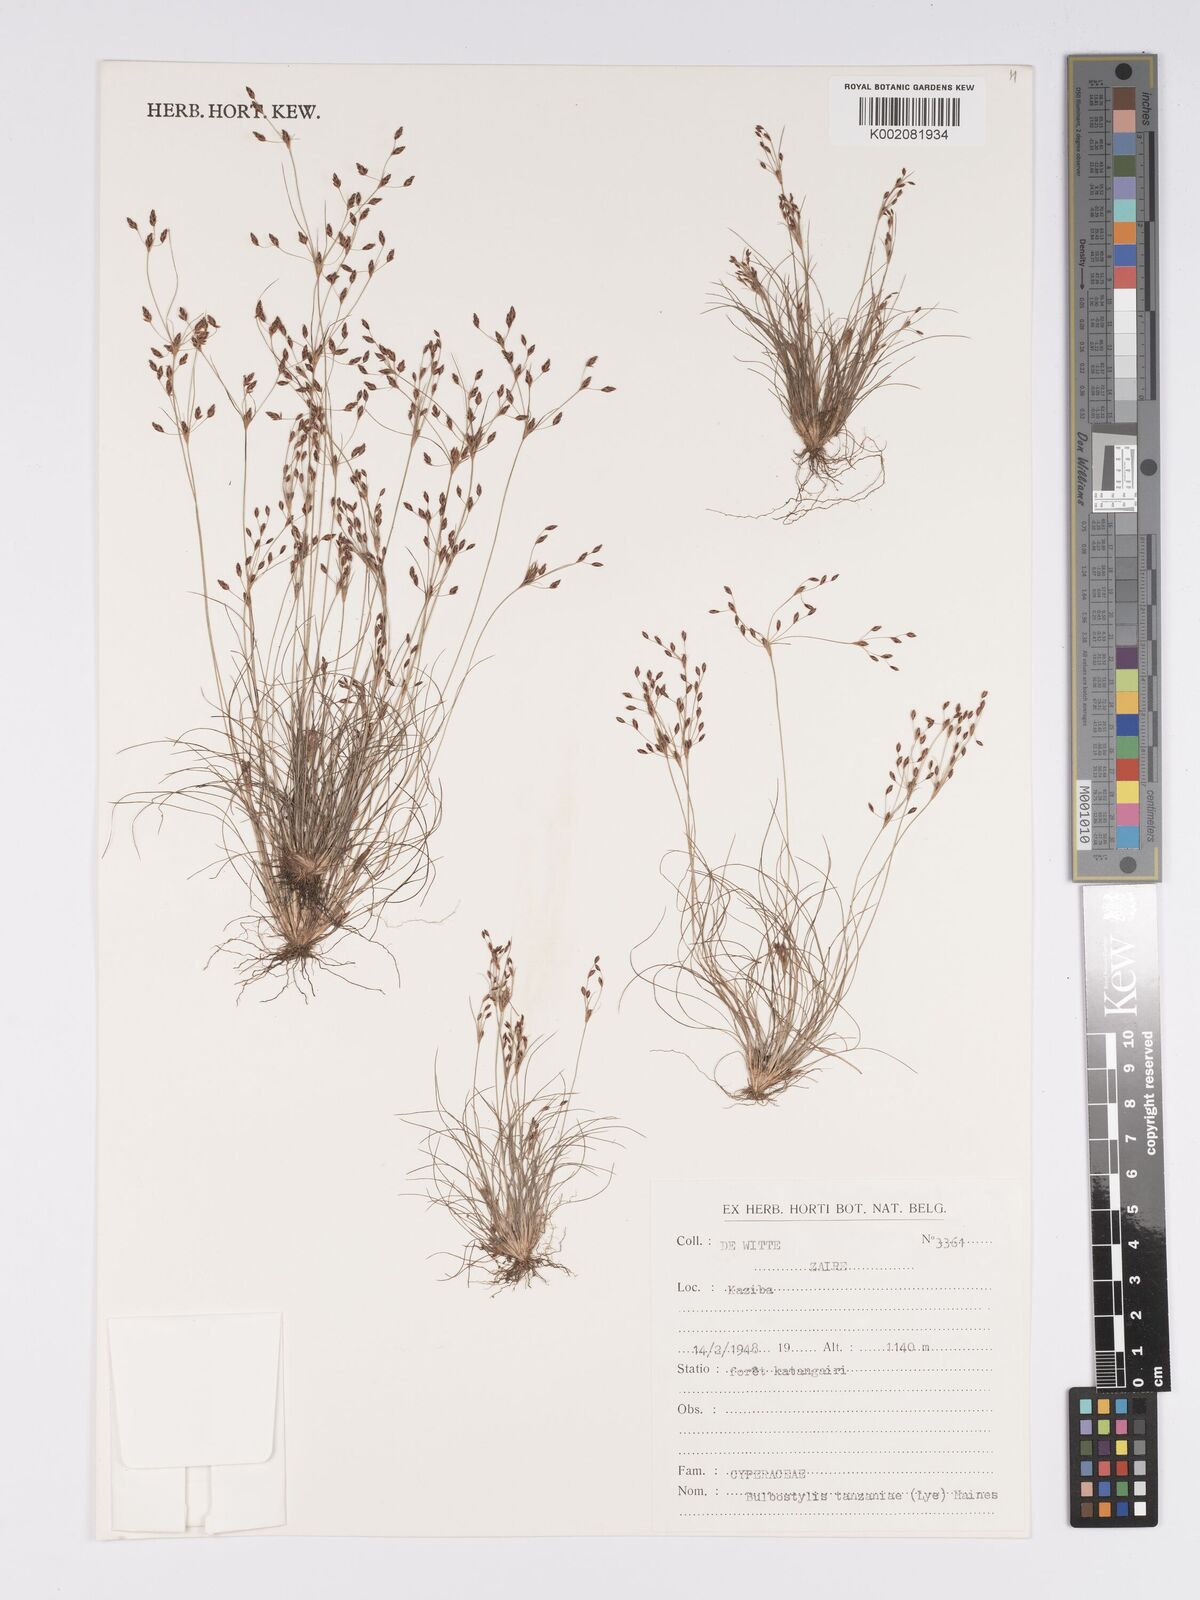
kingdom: Plantae
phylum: Tracheophyta
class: Liliopsida
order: Poales
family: Cyperaceae
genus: Bulbostylis
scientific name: Bulbostylis tanzaniae
